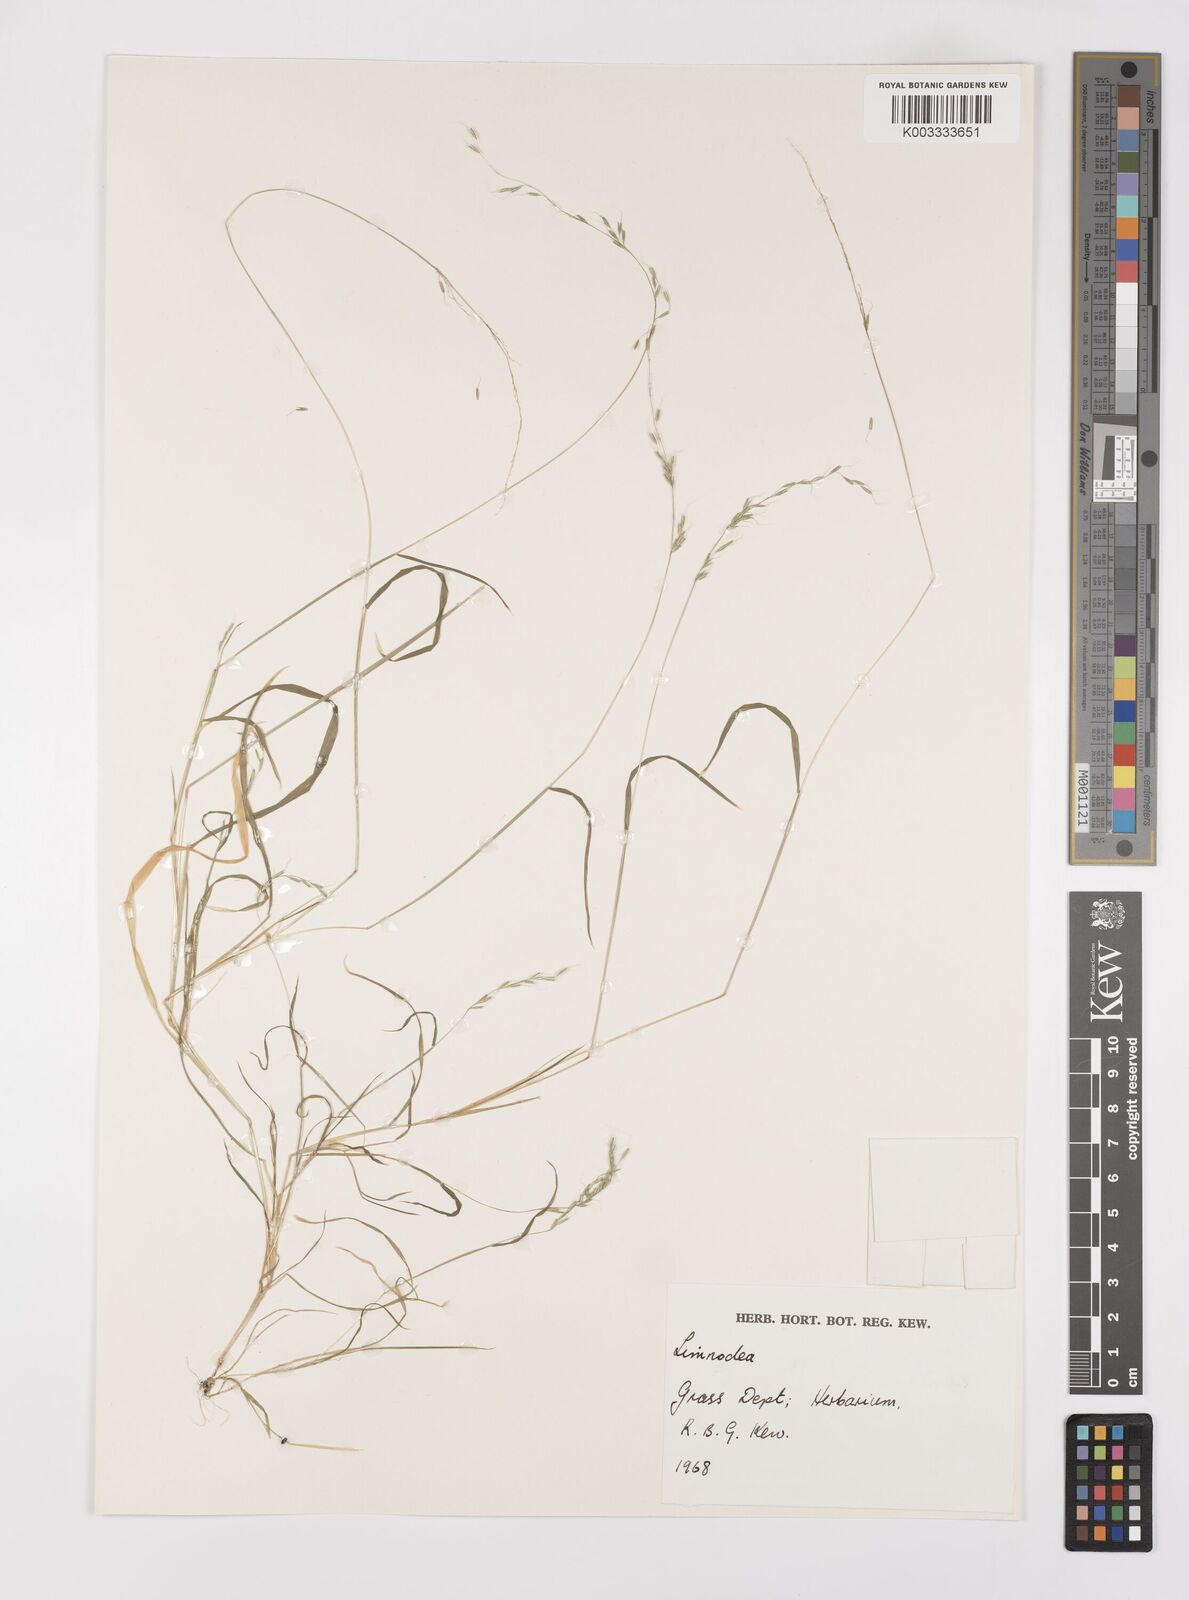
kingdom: Plantae
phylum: Tracheophyta
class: Liliopsida
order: Poales
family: Poaceae
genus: Limnodea
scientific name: Limnodea arkansana
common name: Ozark-grass
